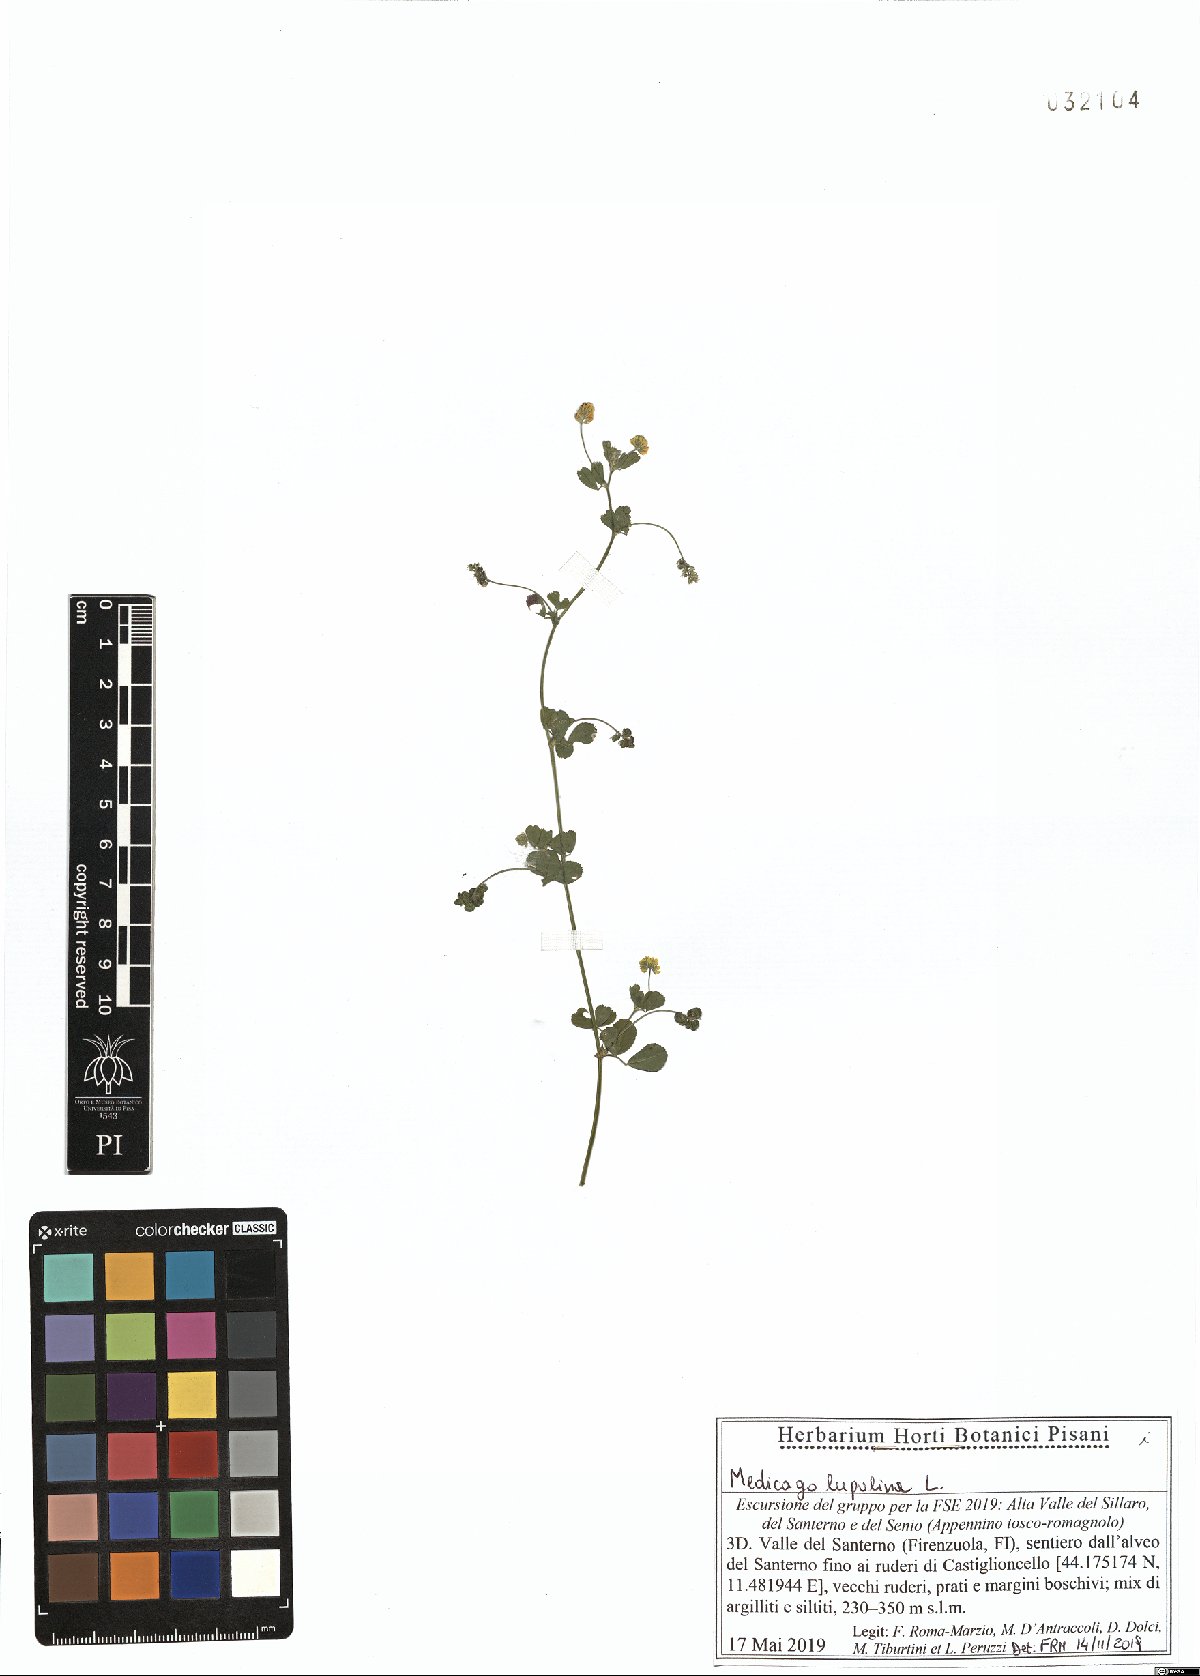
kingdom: Plantae
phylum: Tracheophyta
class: Magnoliopsida
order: Fabales
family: Fabaceae
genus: Medicago
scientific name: Medicago lupulina
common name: Black medick
